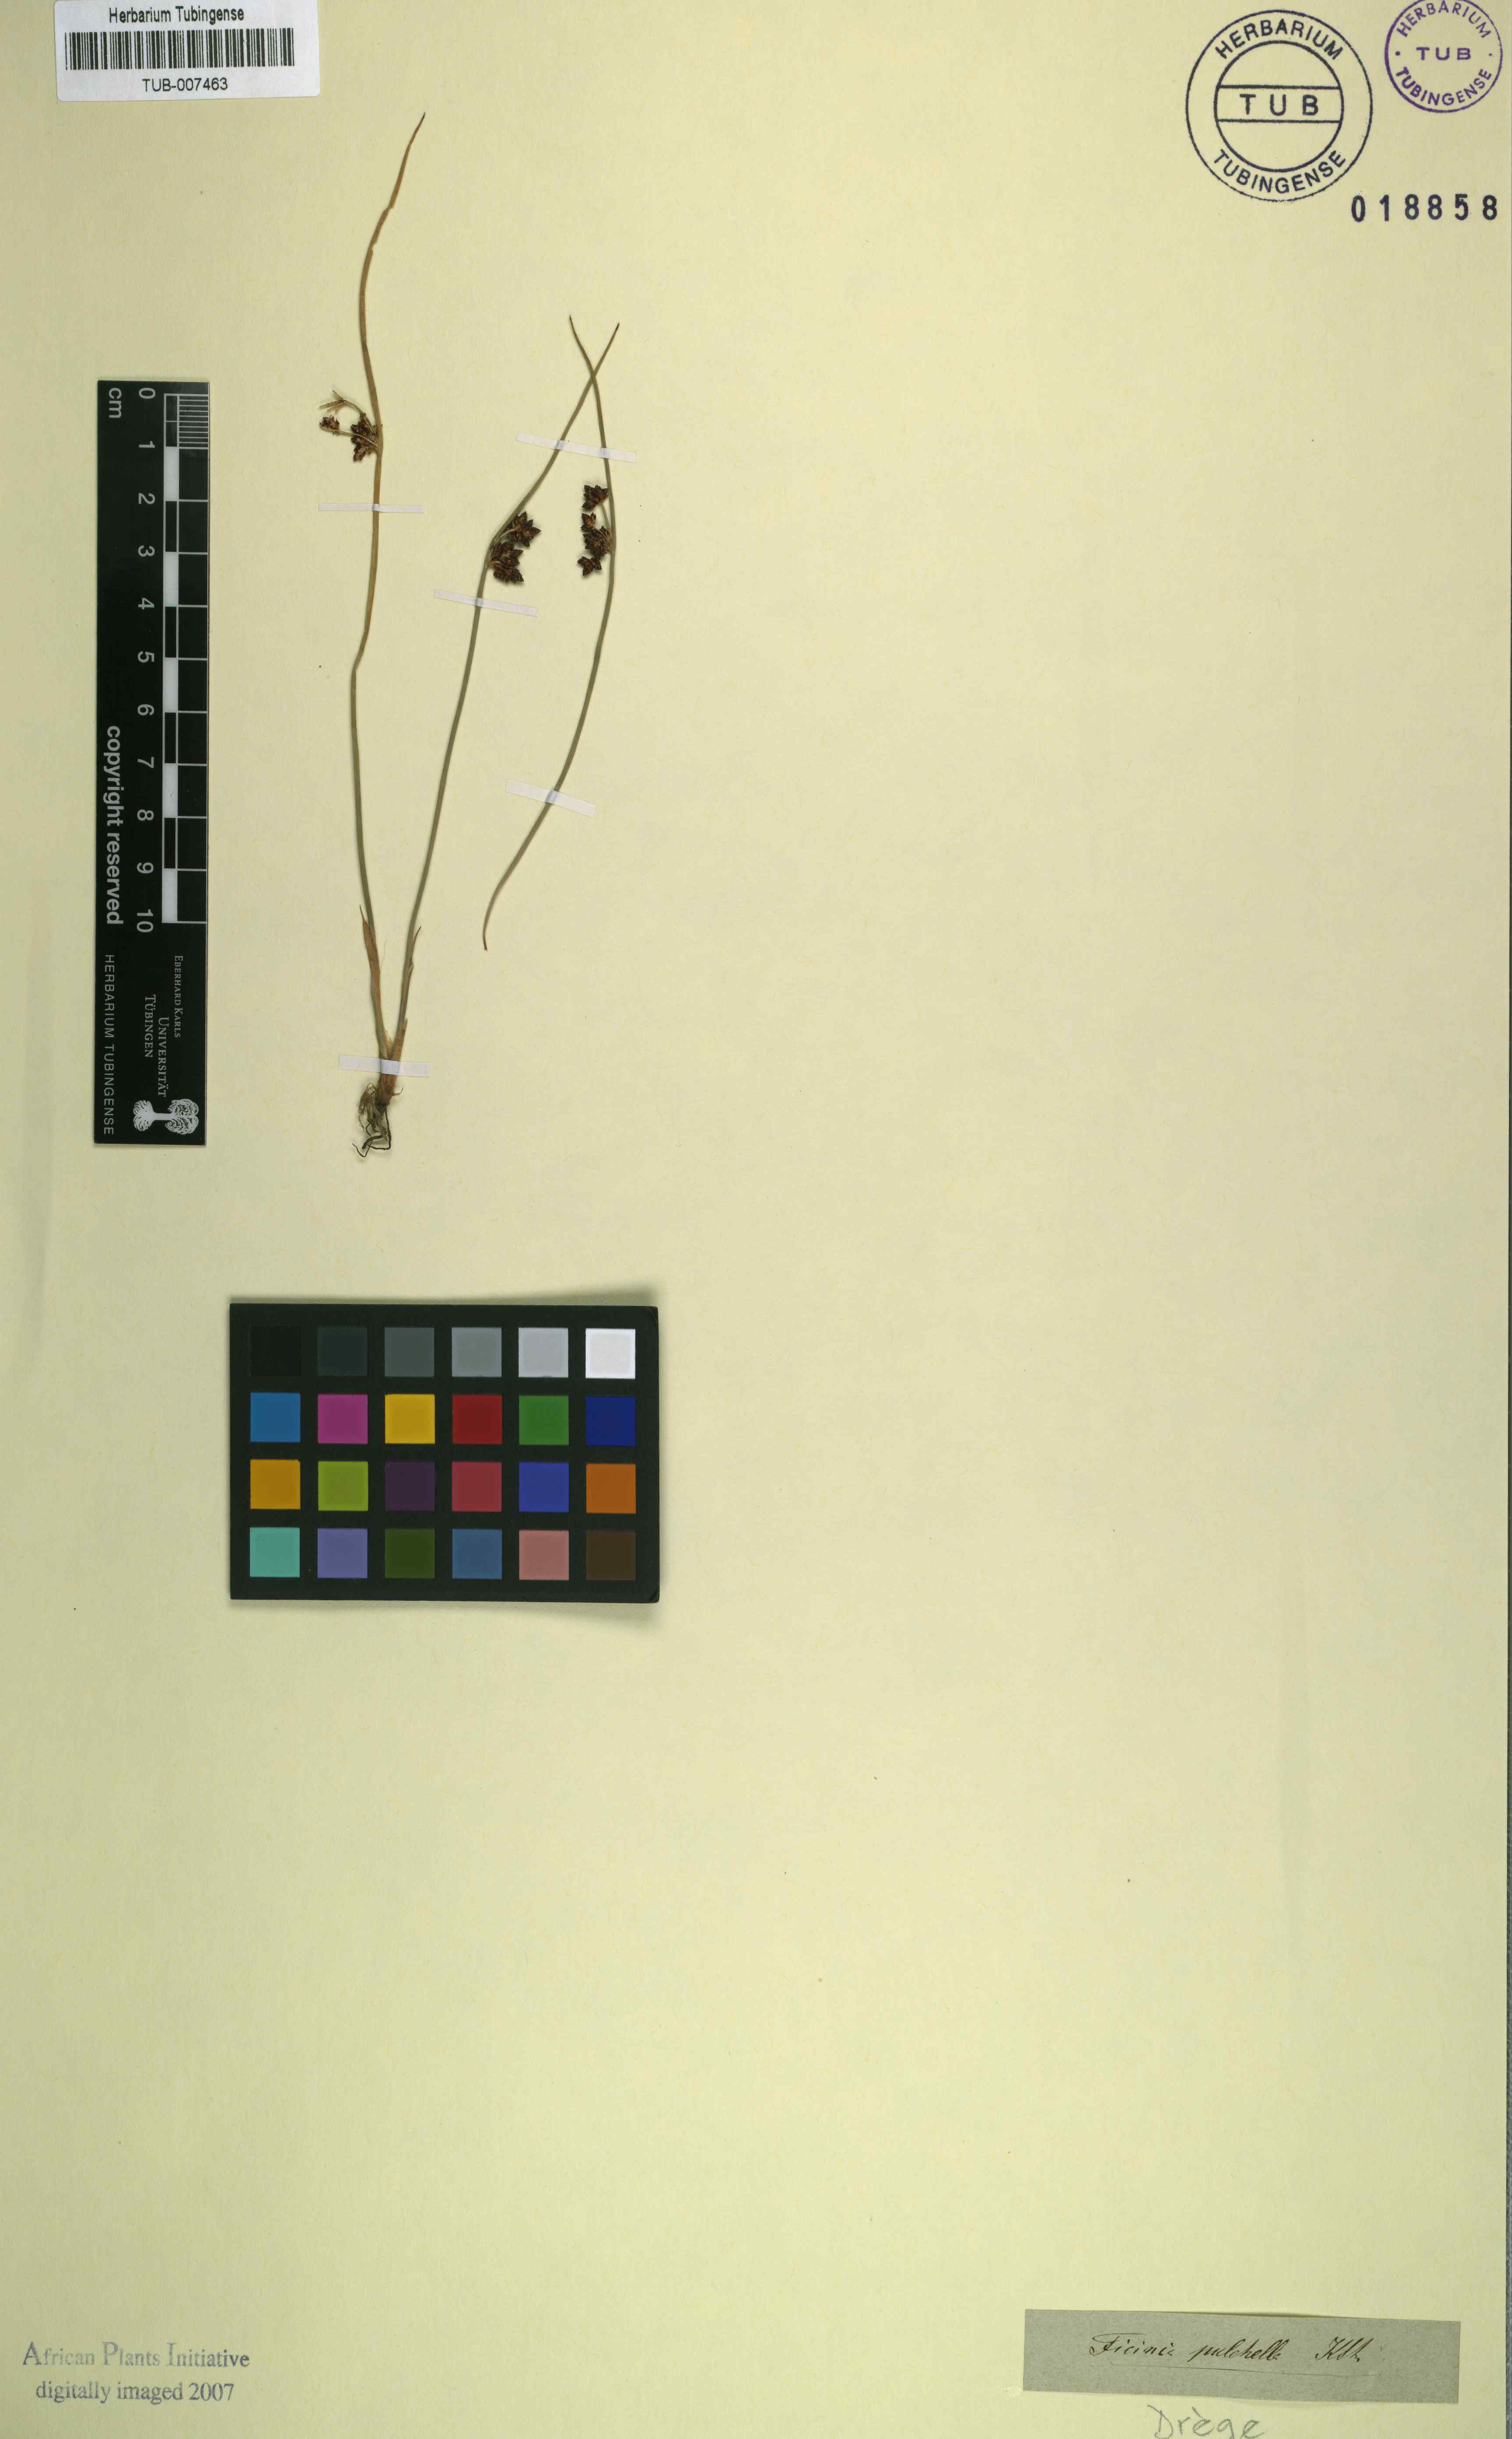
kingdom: Plantae
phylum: Tracheophyta
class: Liliopsida
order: Poales
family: Cyperaceae
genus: Schoenoplectiella
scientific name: Schoenoplectiella pulchella
